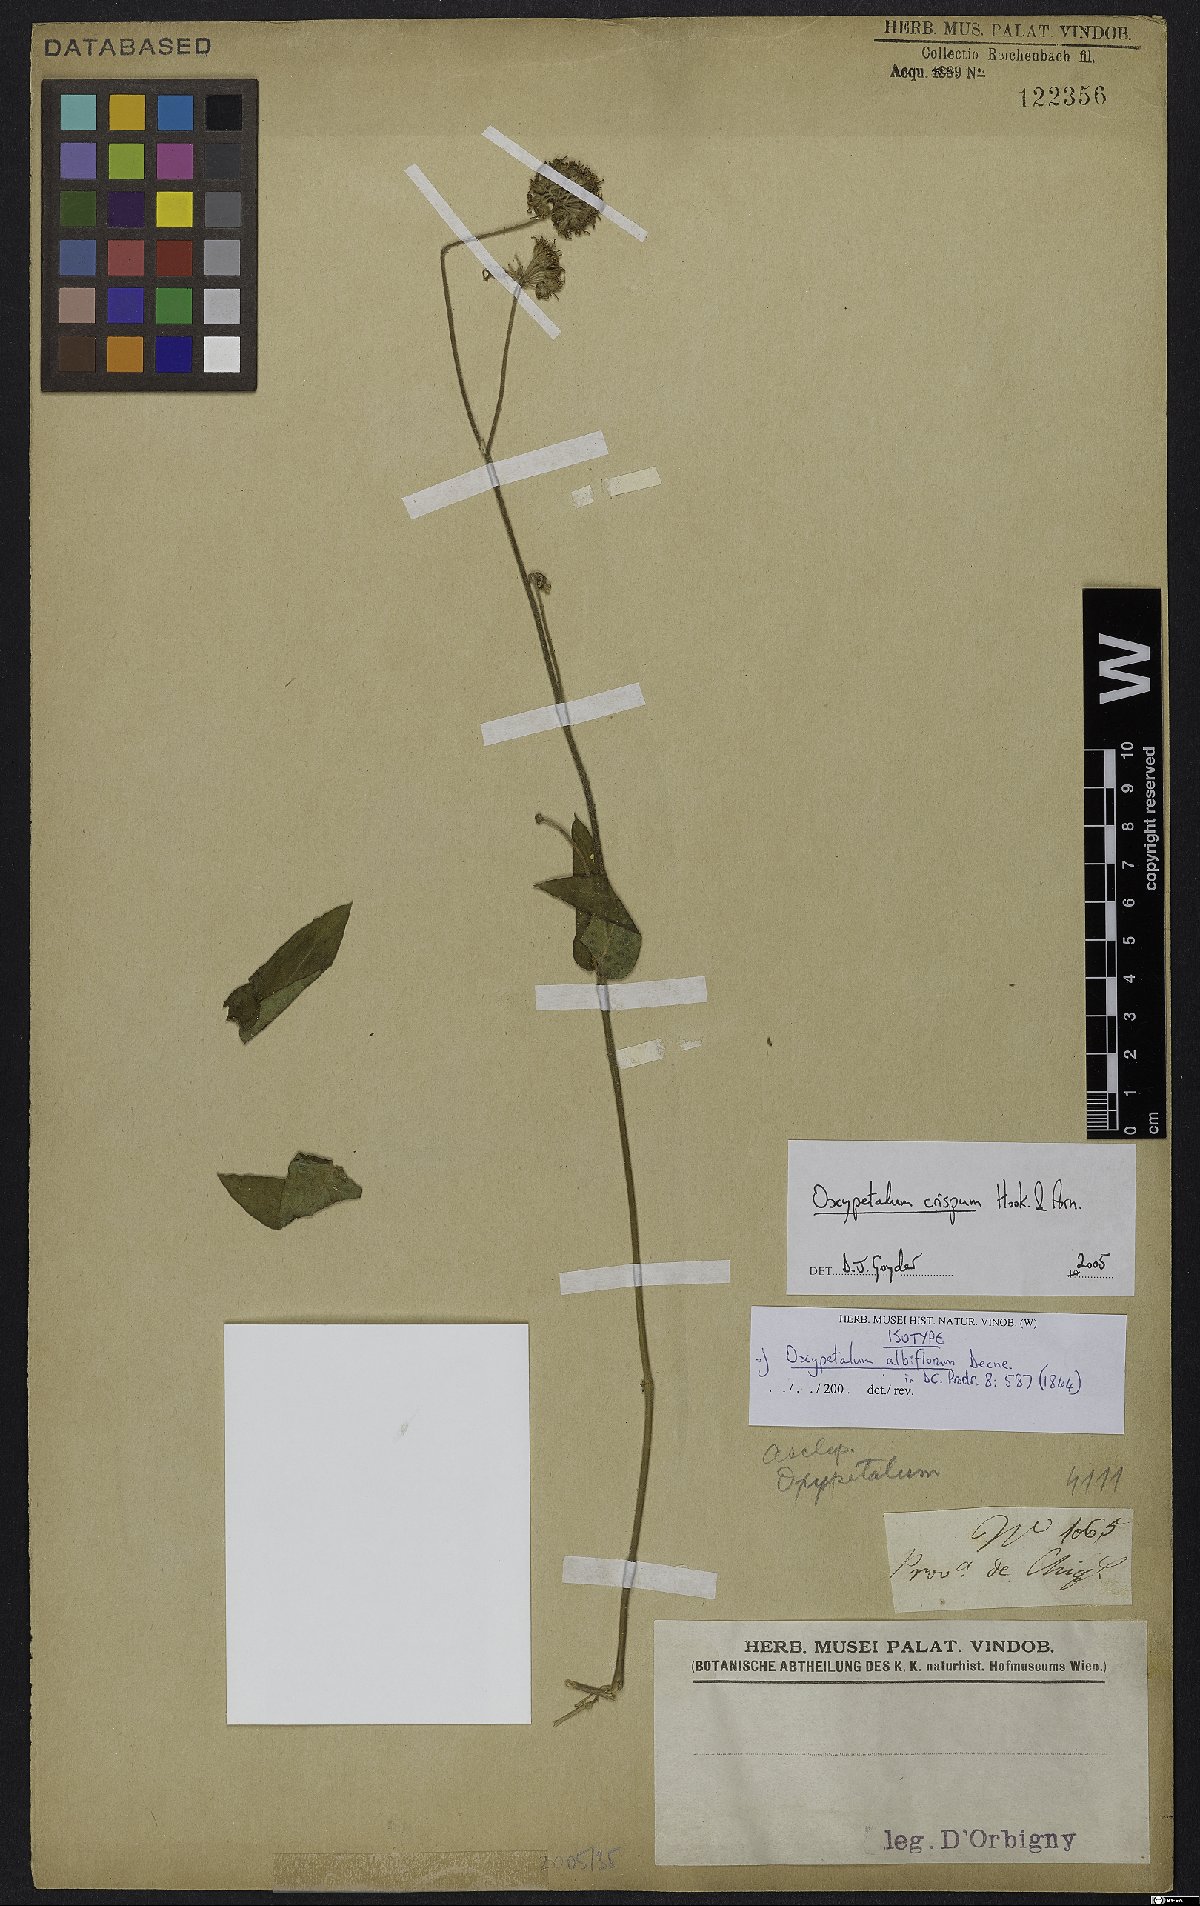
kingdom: Plantae
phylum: Tracheophyta
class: Magnoliopsida
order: Gentianales
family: Apocynaceae
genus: Oxypetalum
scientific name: Oxypetalum crispum
